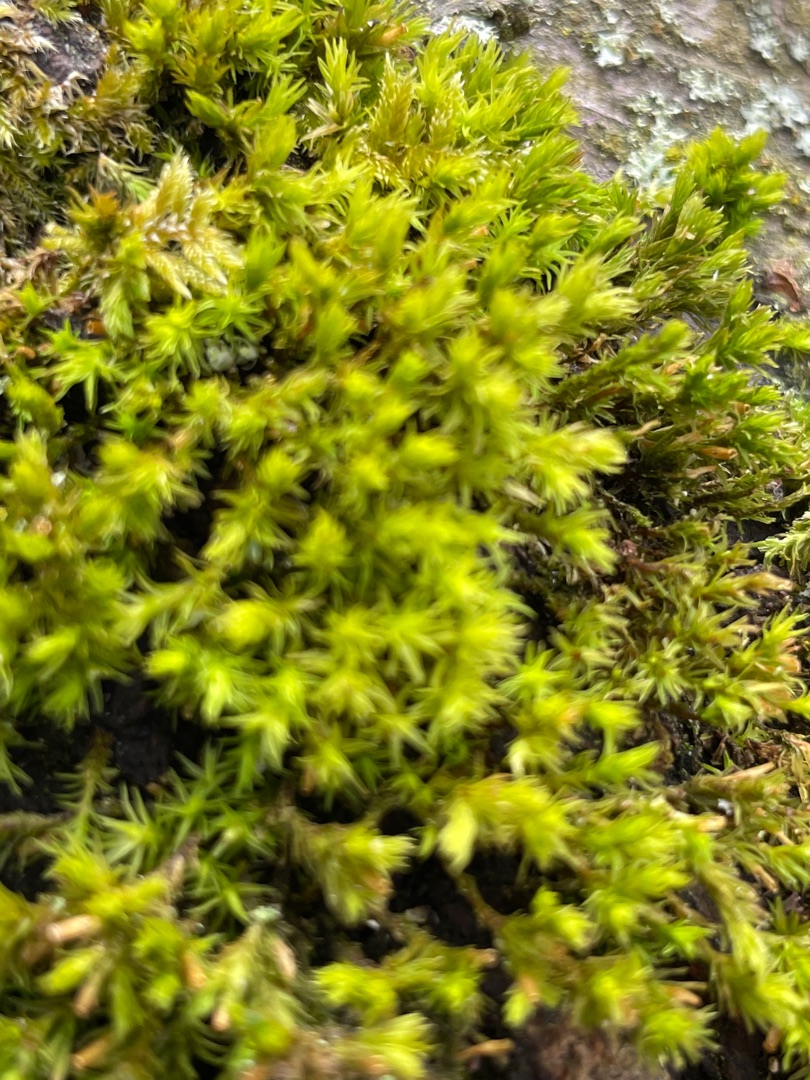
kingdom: Plantae
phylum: Bryophyta
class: Bryopsida
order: Orthotrichales
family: Orthotrichaceae
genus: Lewinskya
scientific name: Lewinskya affinis
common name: Almindelig furehætte
